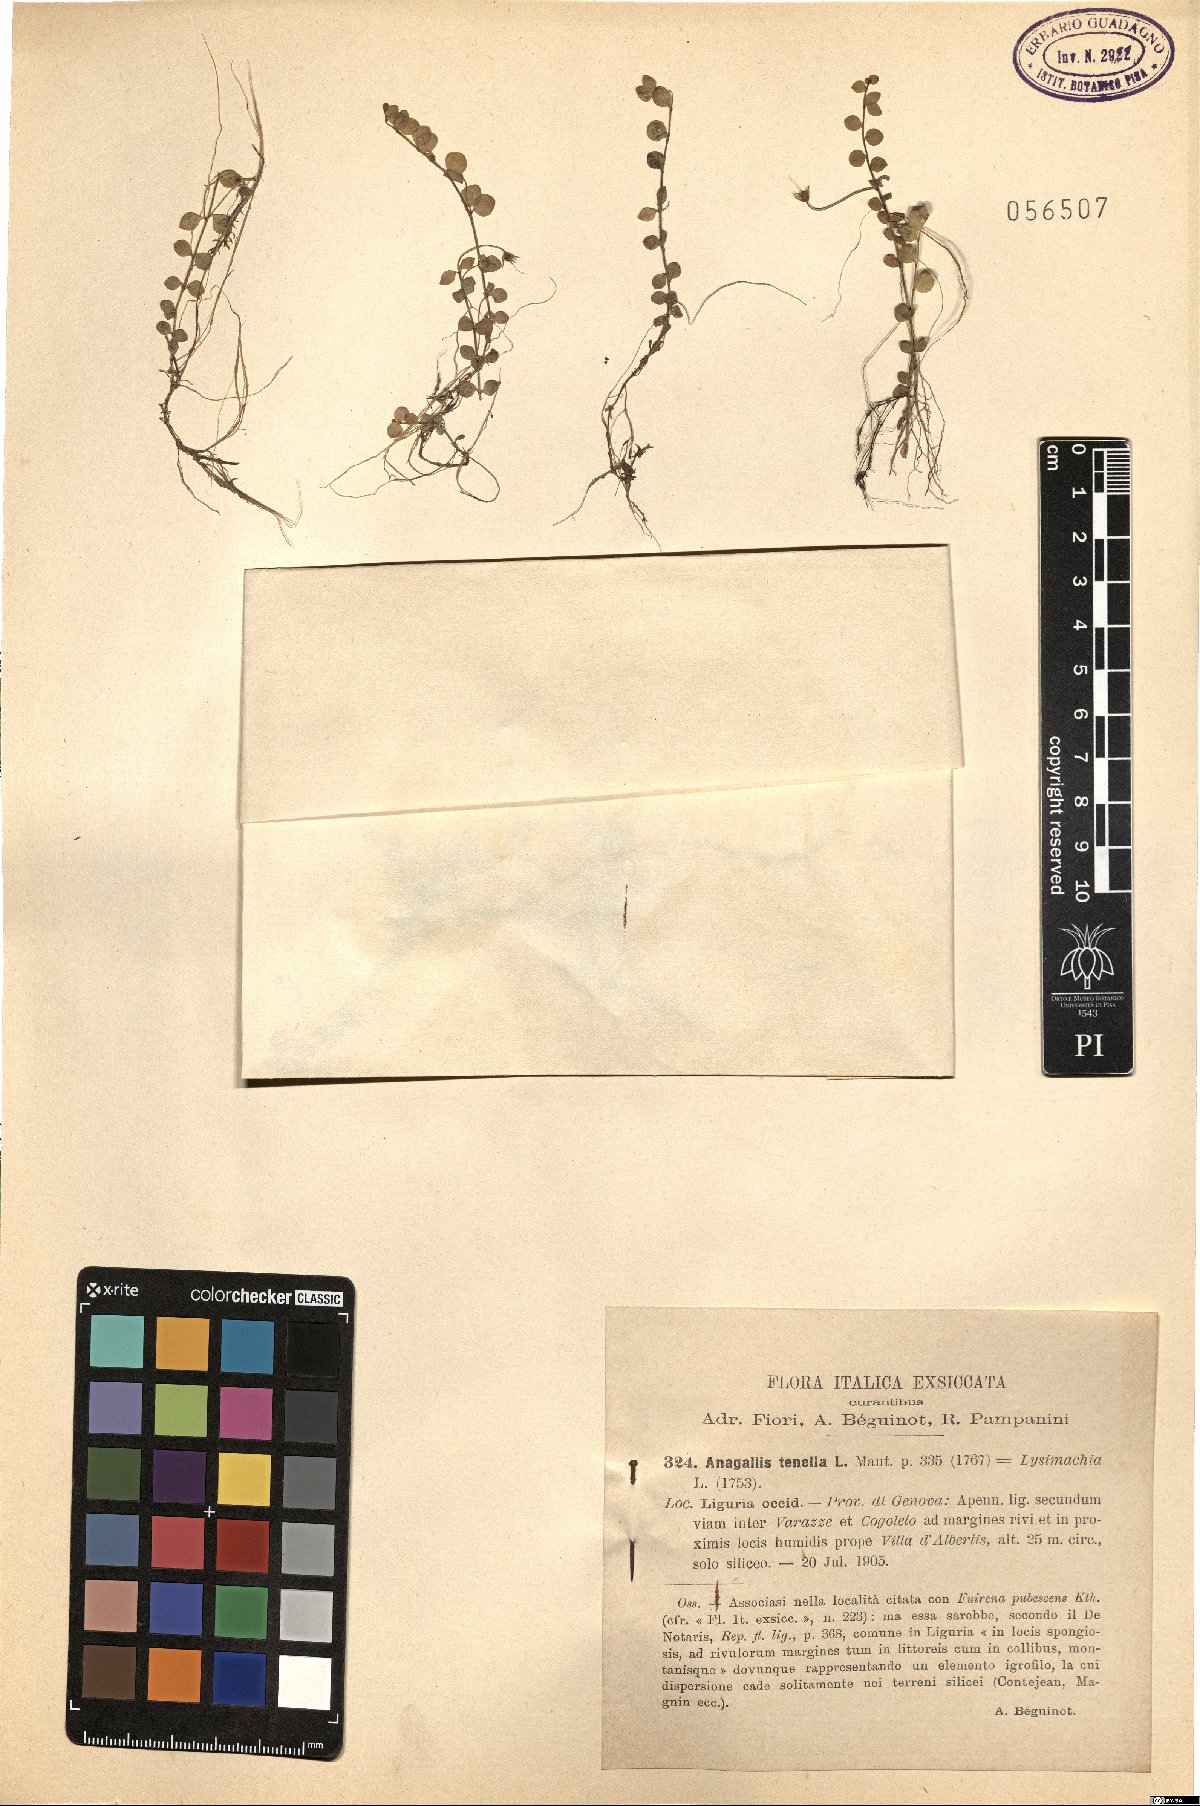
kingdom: Plantae
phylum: Tracheophyta
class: Magnoliopsida
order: Ericales
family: Primulaceae
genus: Lysimachia
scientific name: Lysimachia tenella
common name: European bog pimpernel
